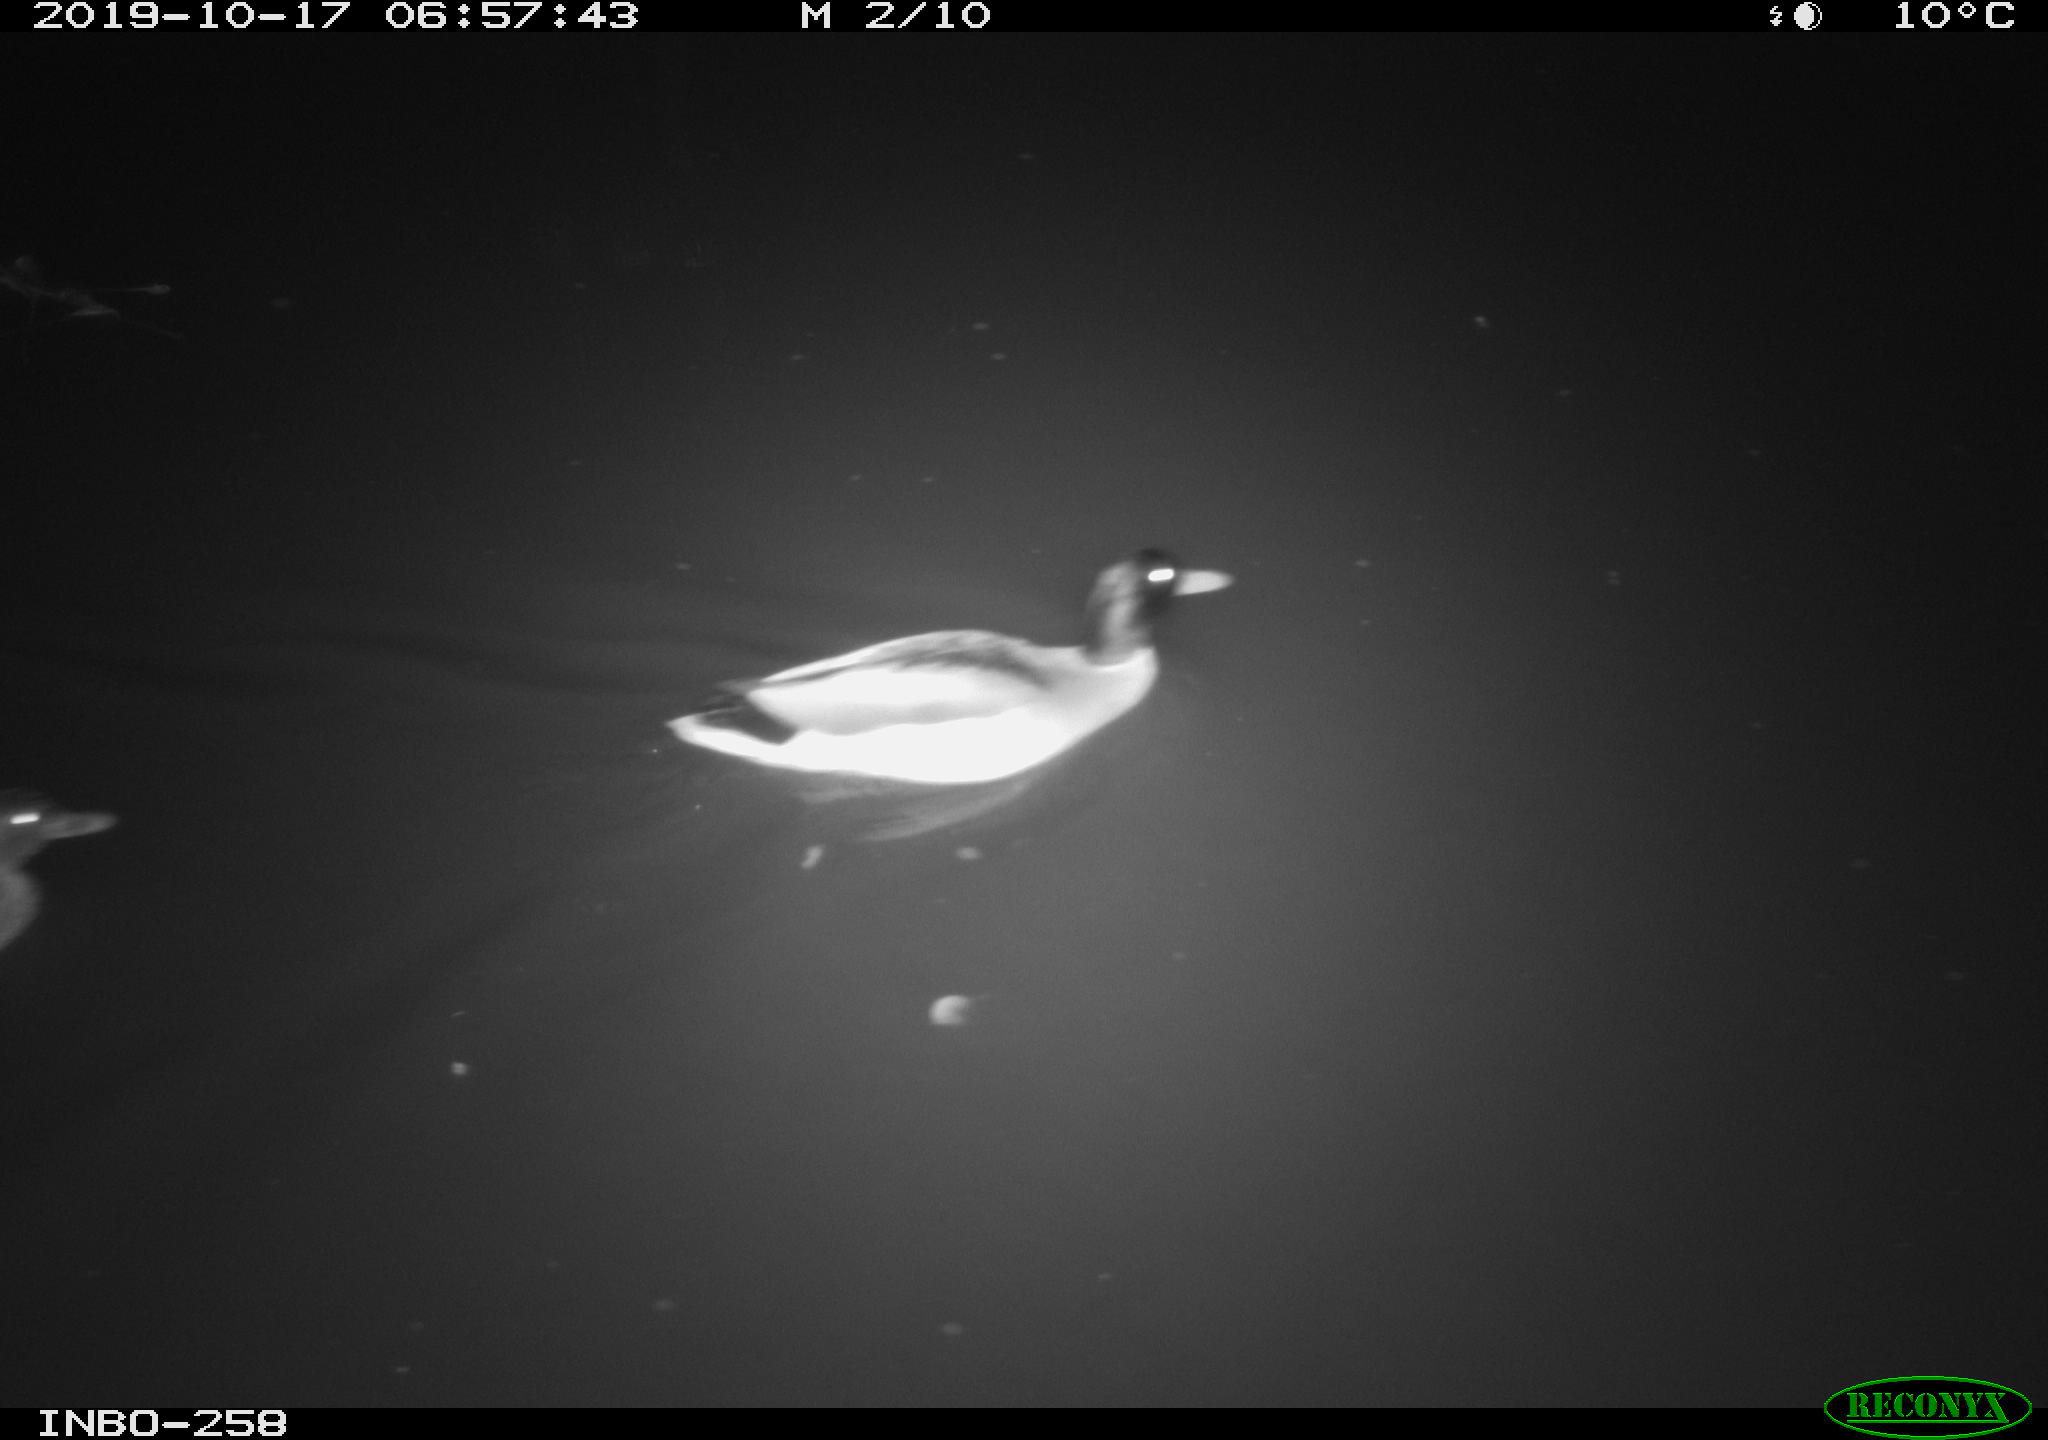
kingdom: Animalia
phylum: Chordata
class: Aves
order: Anseriformes
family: Anatidae
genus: Anas
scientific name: Anas platyrhynchos
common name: Mallard
